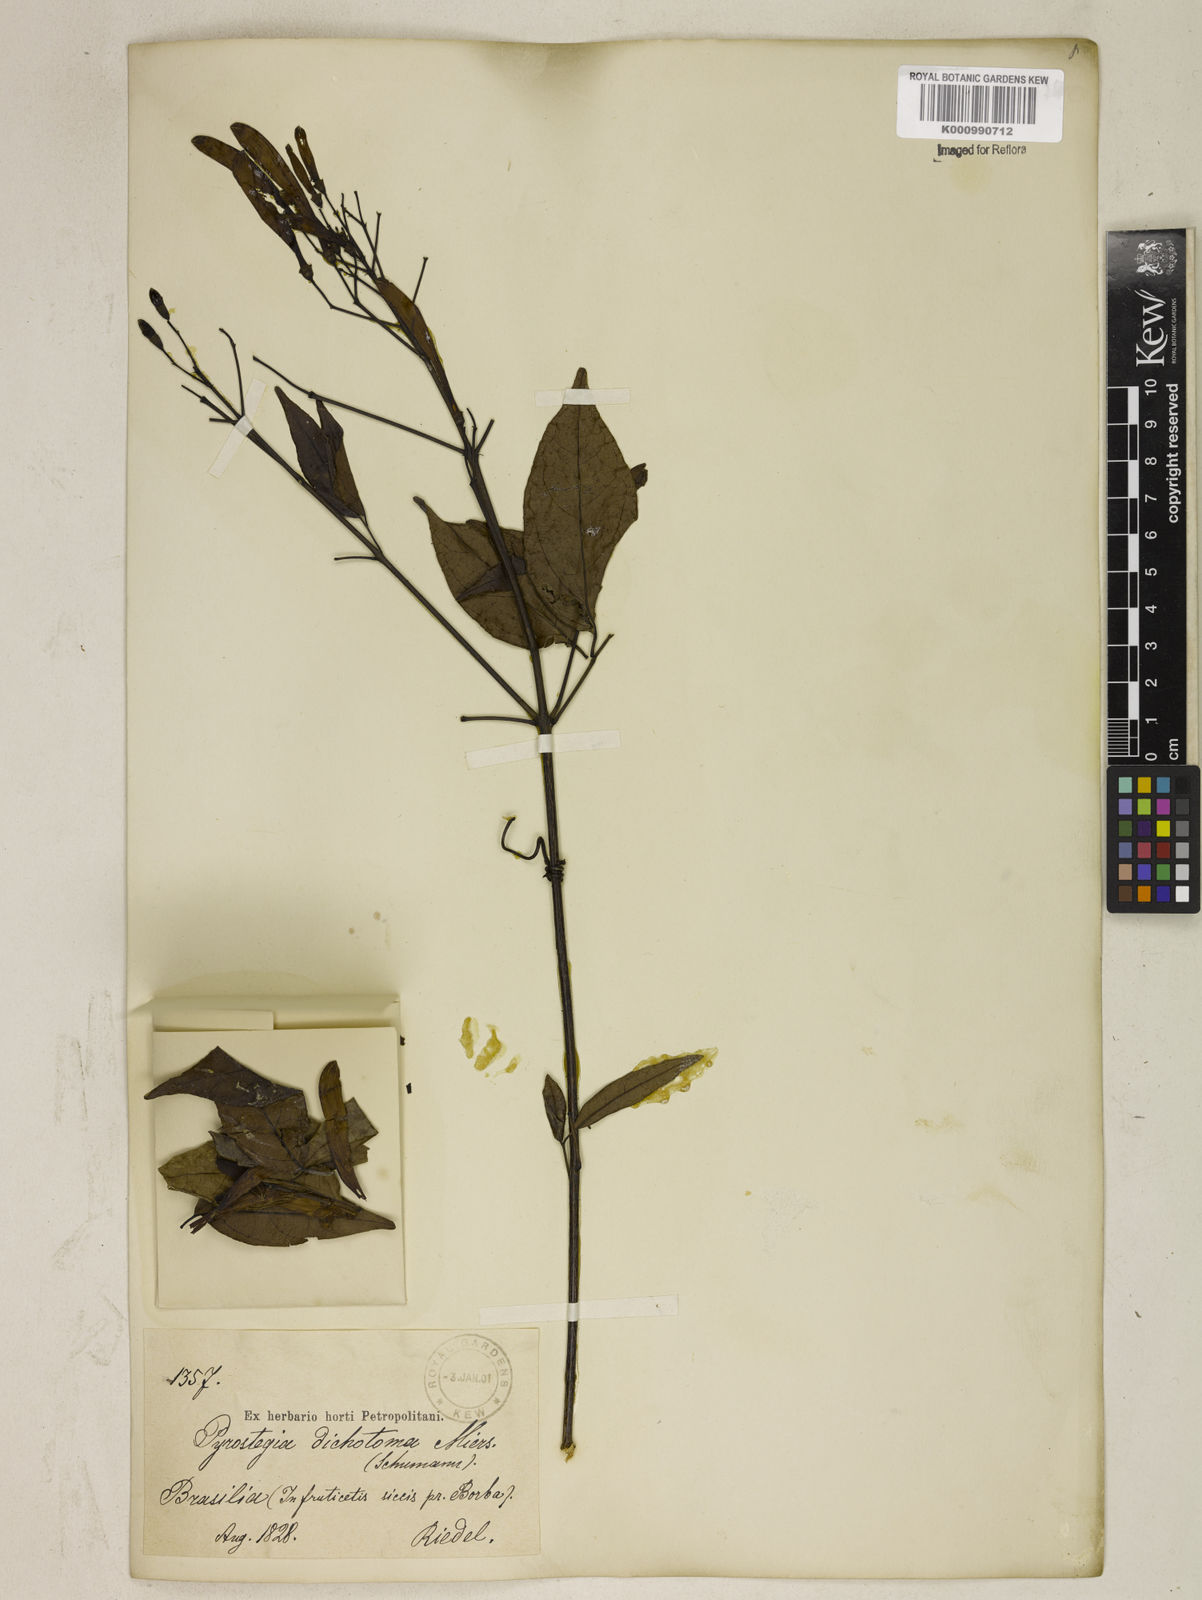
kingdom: Plantae
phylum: Tracheophyta
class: Magnoliopsida
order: Lamiales
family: Bignoniaceae
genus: Pyrostegia
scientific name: Pyrostegia
